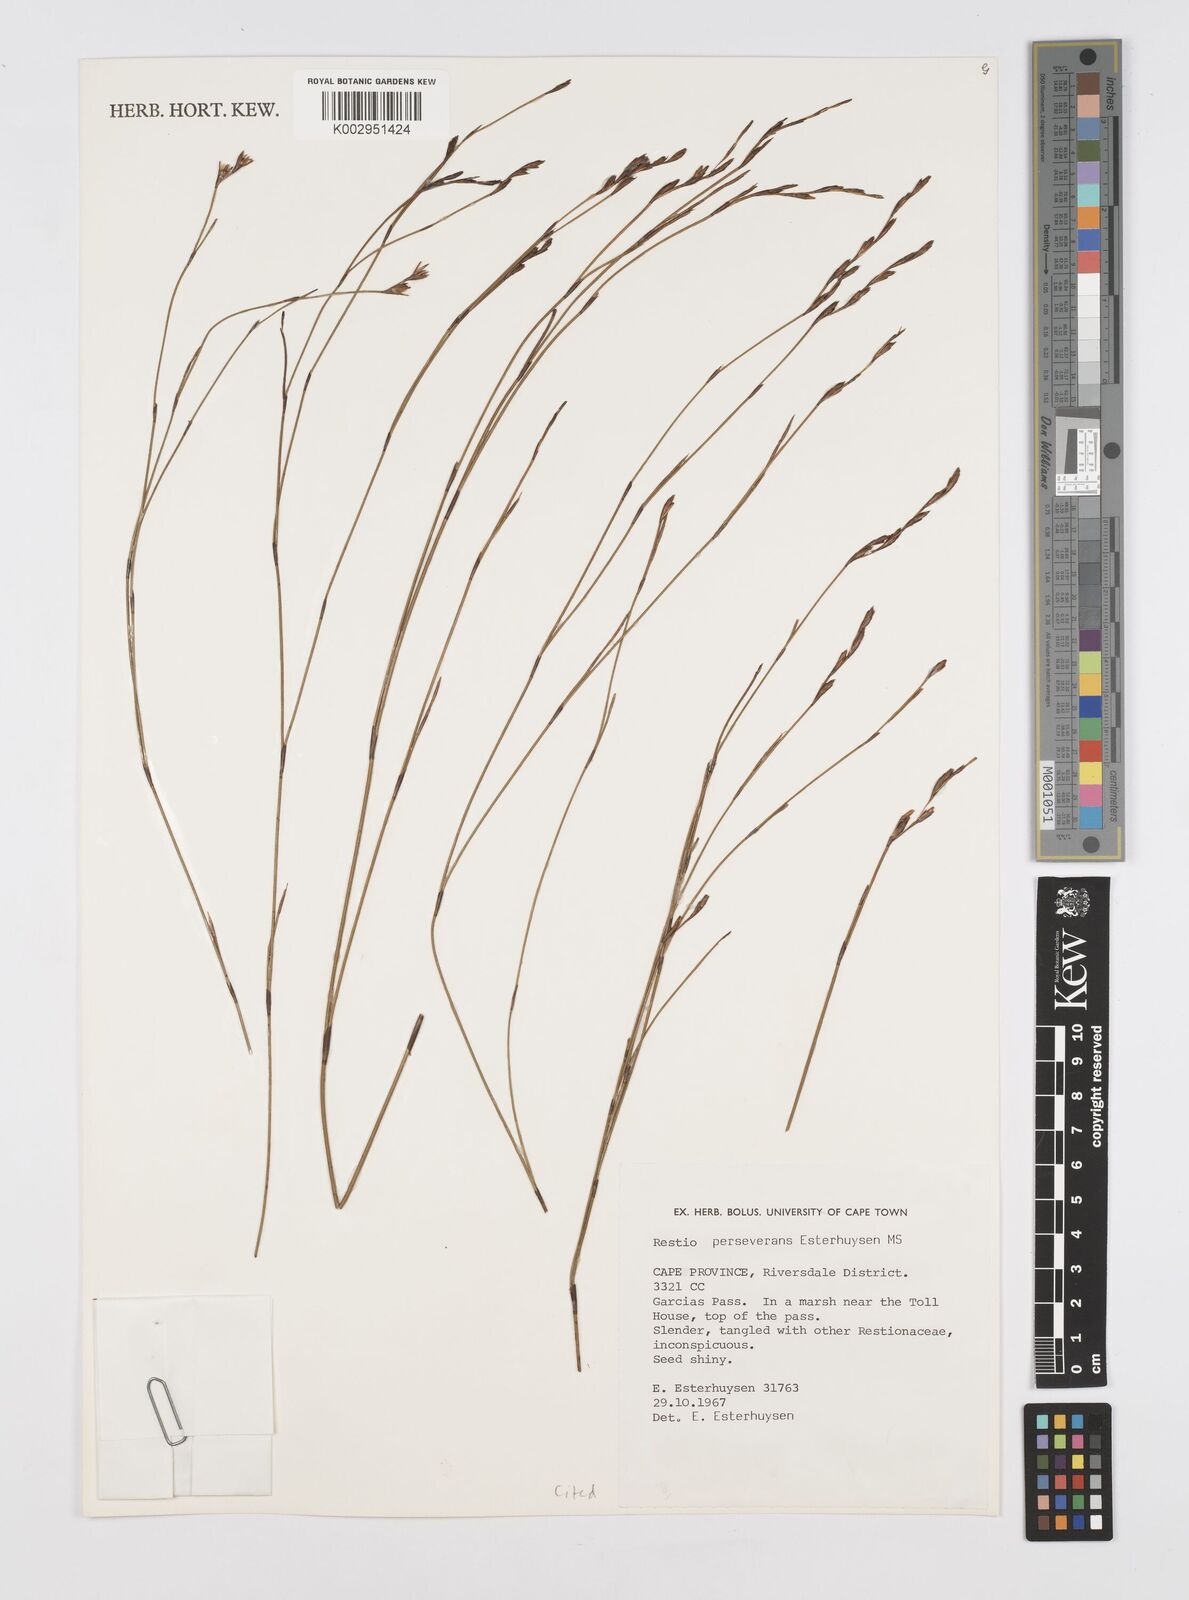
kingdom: Plantae
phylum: Tracheophyta
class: Liliopsida
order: Poales
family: Restionaceae
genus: Restio
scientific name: Restio perseverans
